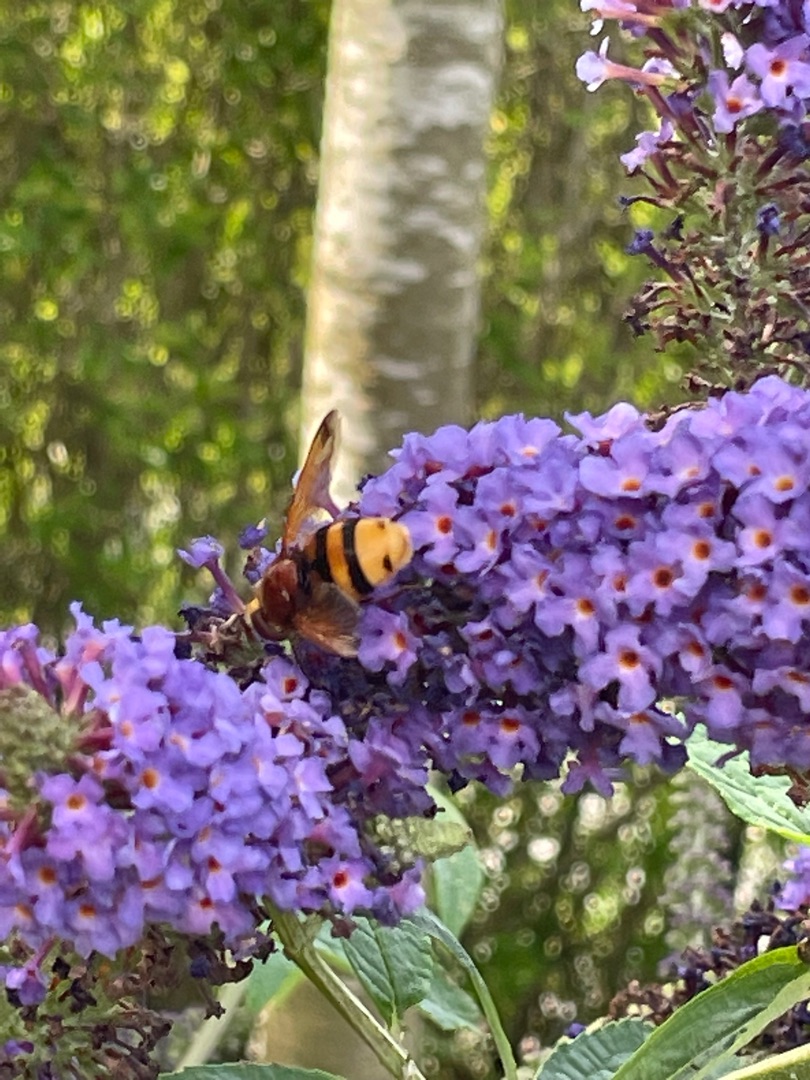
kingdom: Animalia
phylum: Arthropoda
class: Insecta
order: Diptera
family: Syrphidae
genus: Volucella
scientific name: Volucella zonaria
